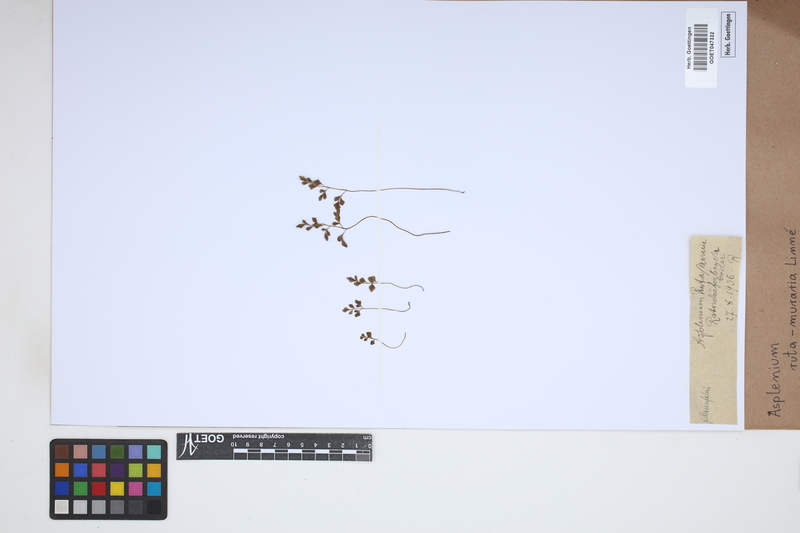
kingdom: Plantae
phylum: Tracheophyta
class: Polypodiopsida
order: Polypodiales
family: Aspleniaceae
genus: Asplenium
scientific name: Asplenium ruta-muraria
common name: Wall-rue
